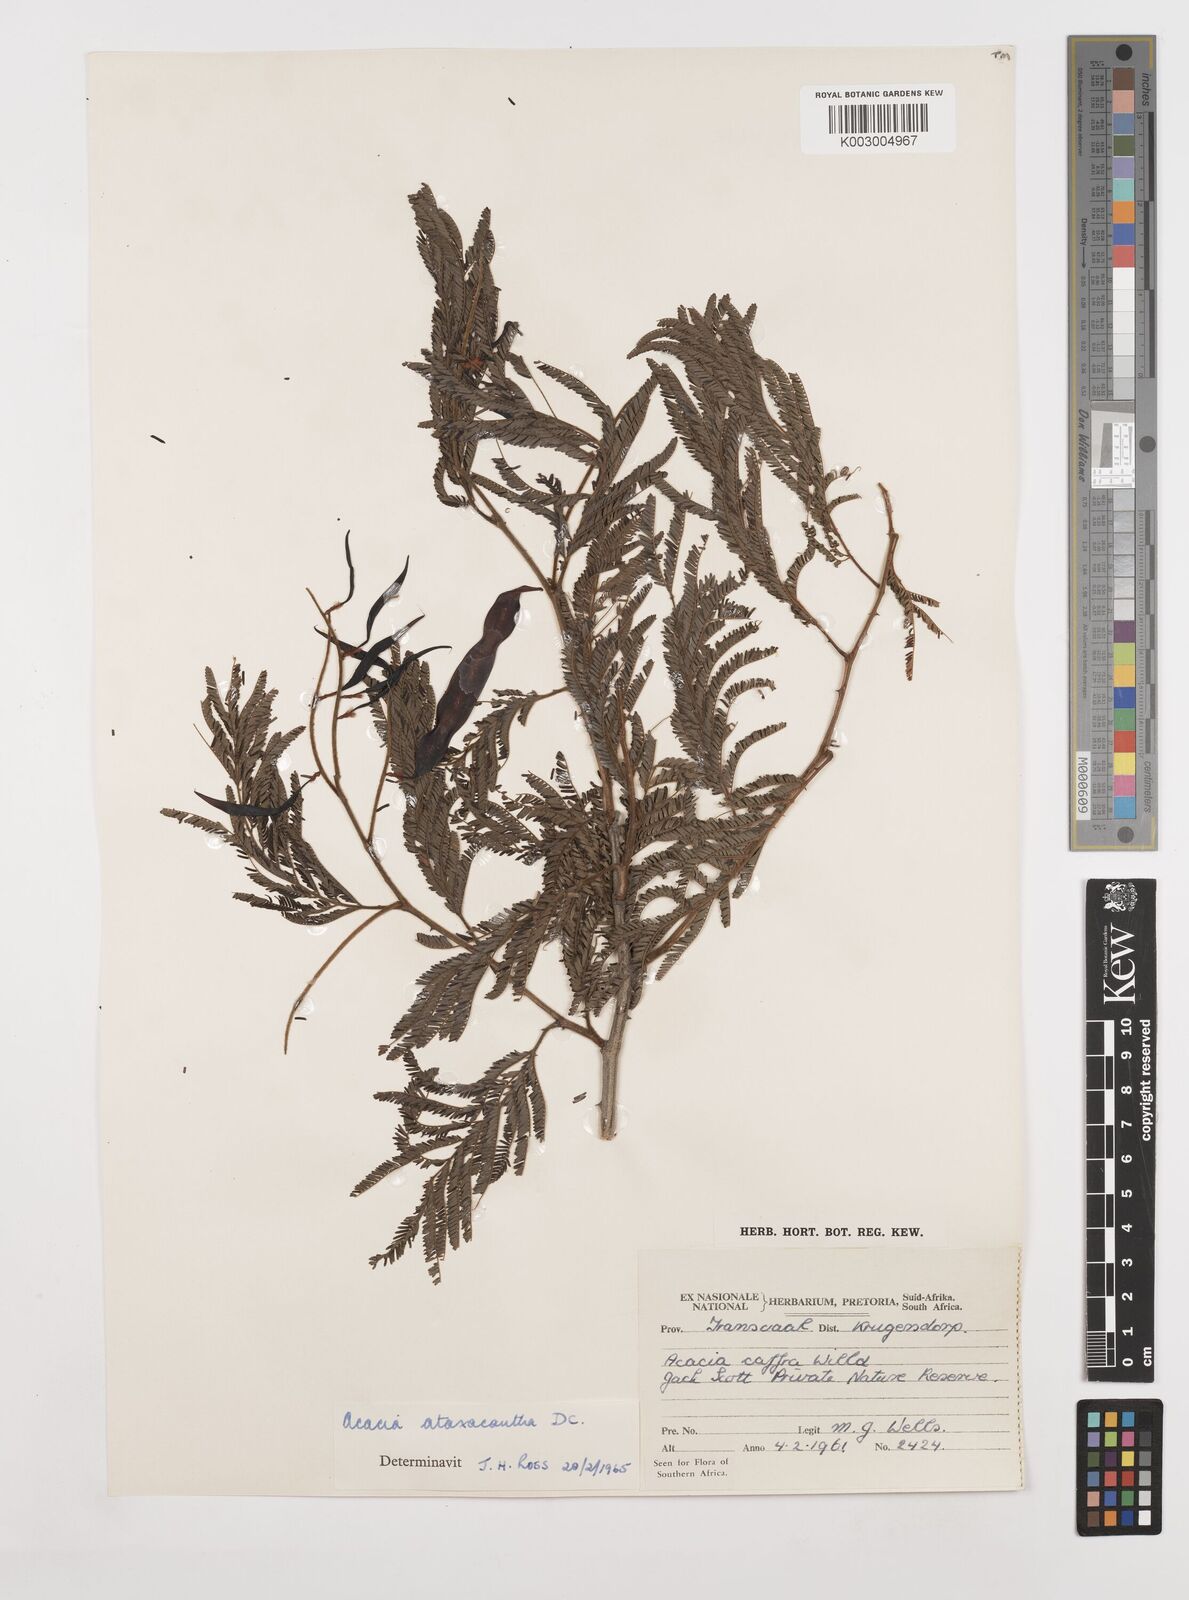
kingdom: Plantae
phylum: Tracheophyta
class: Magnoliopsida
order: Fabales
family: Fabaceae
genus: Senegalia
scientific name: Senegalia ataxacantha
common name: Flame acacia
